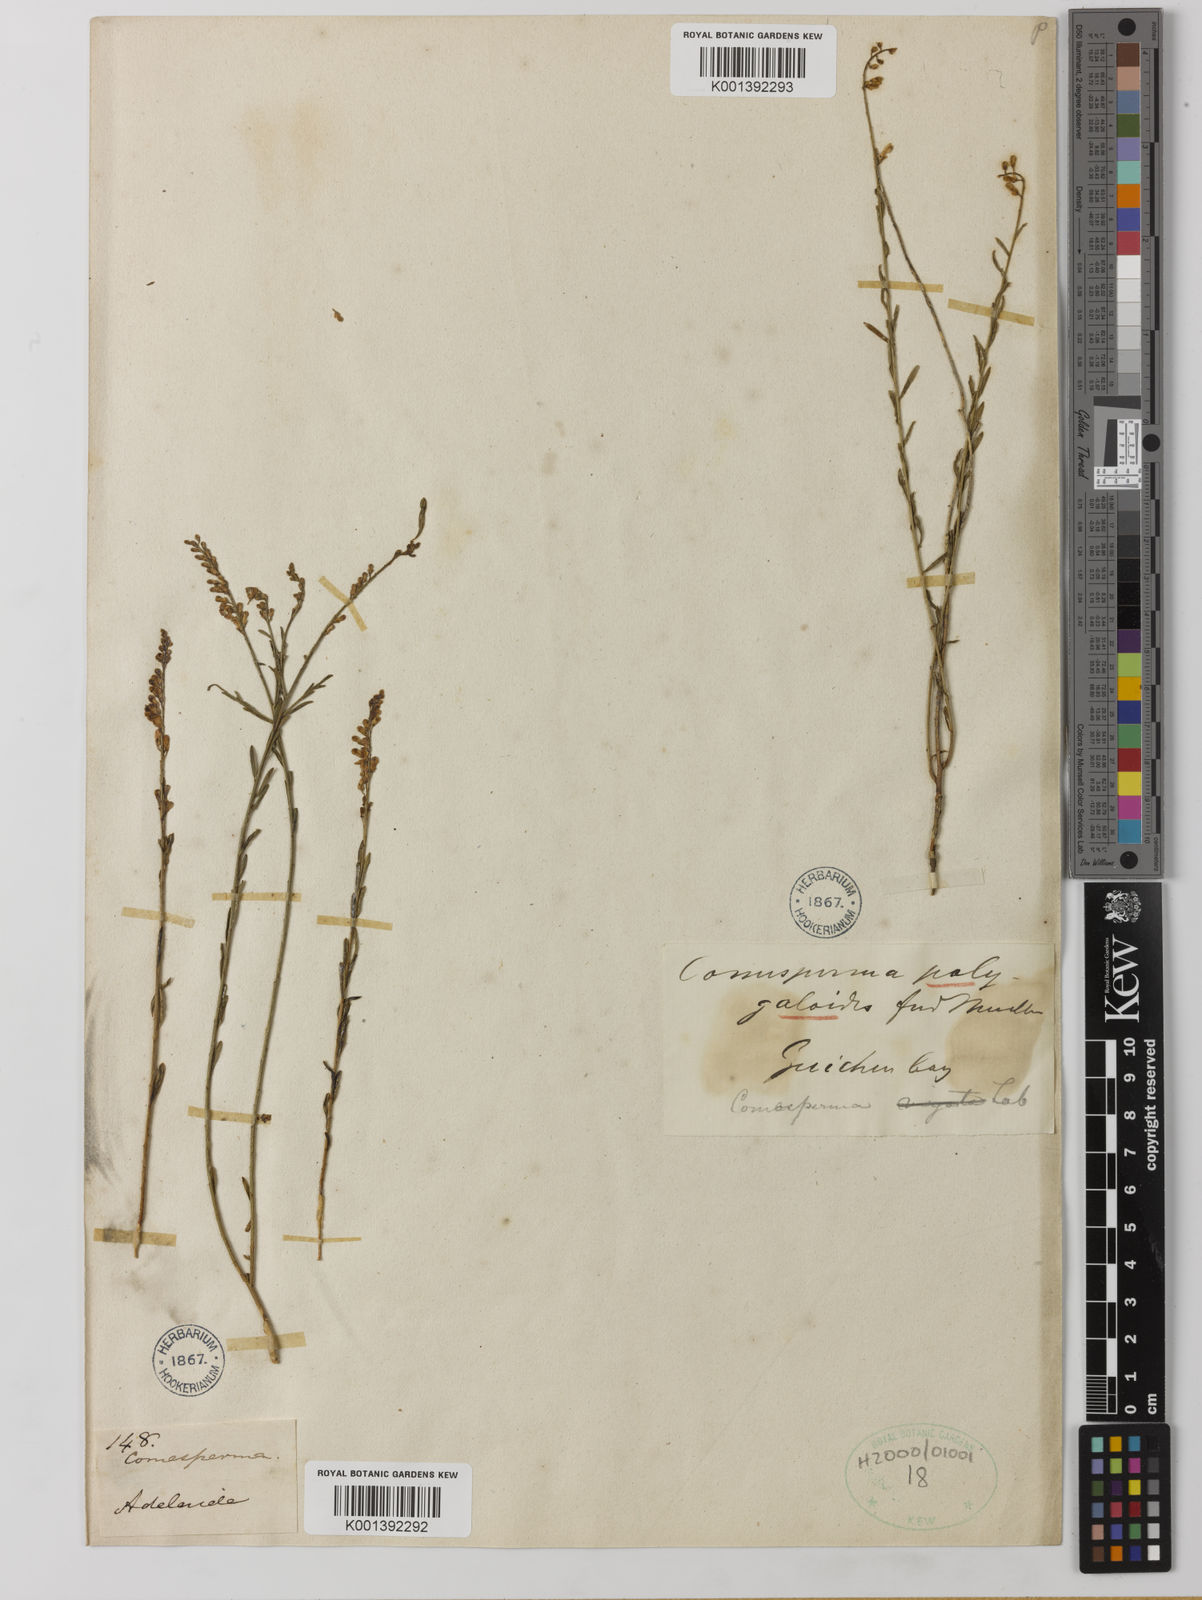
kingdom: Plantae
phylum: Tracheophyta
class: Magnoliopsida
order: Fabales
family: Polygalaceae
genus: Comesperma
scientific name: Comesperma polygaloides
